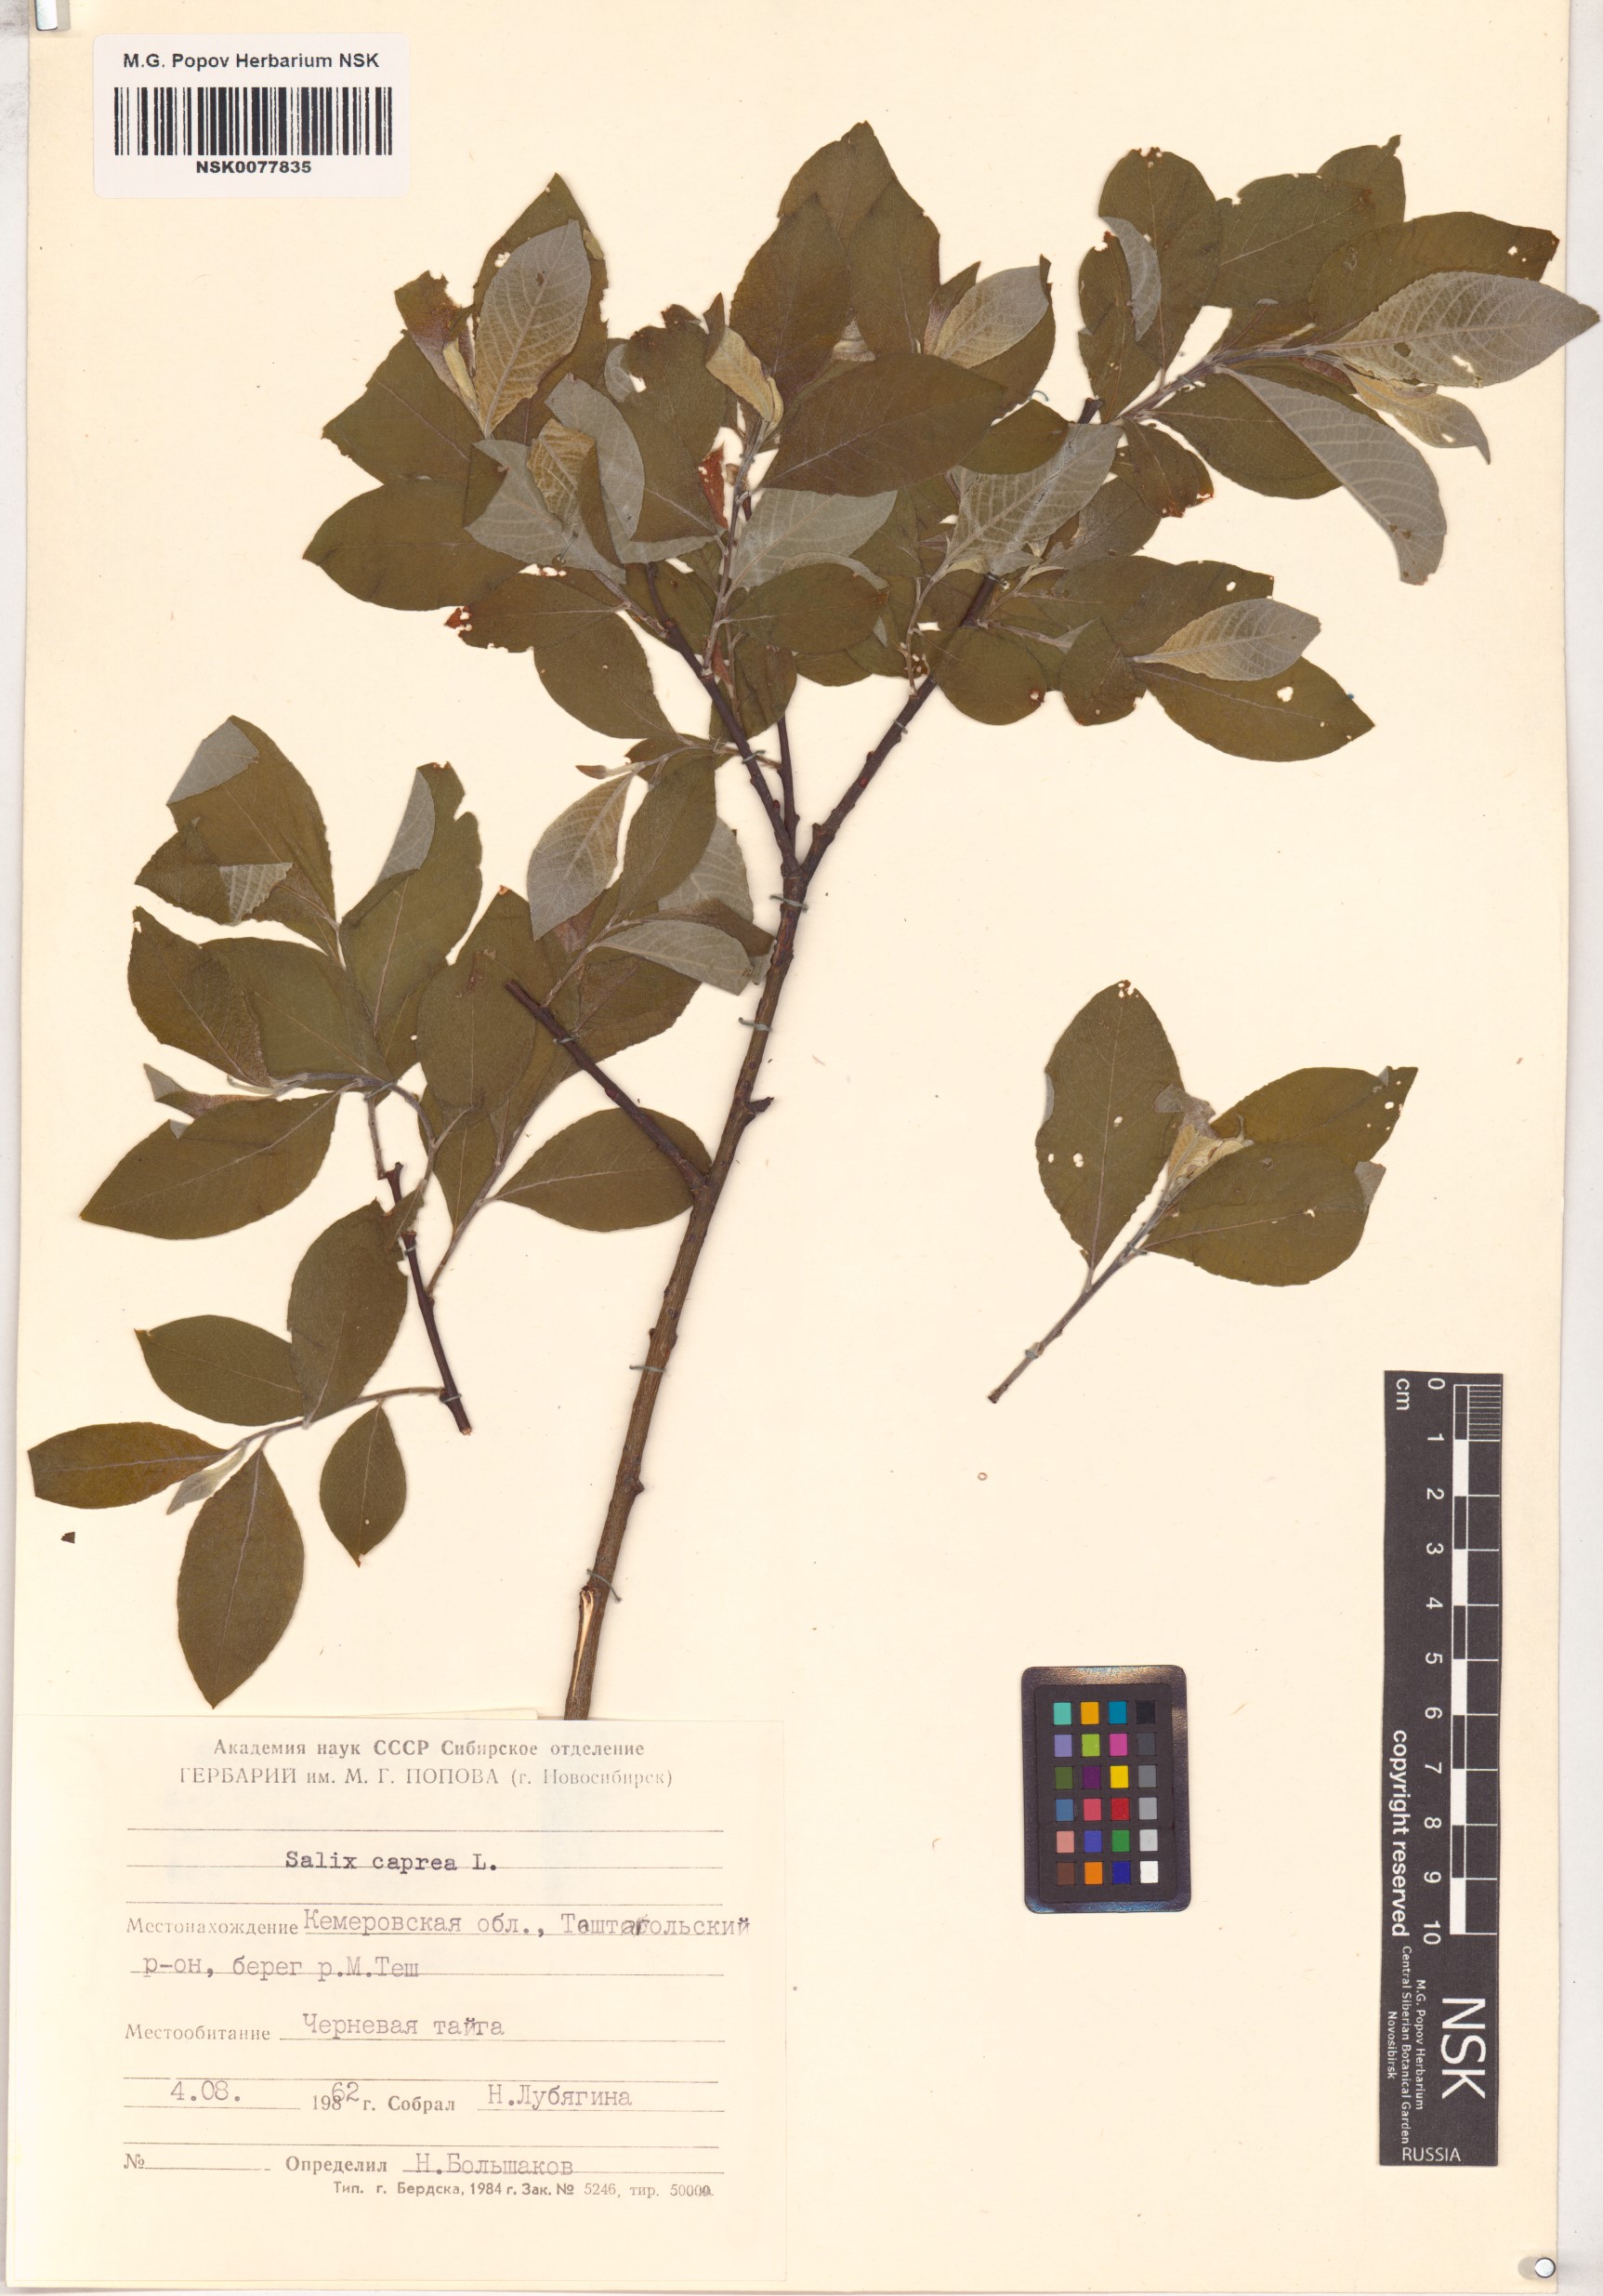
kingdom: Plantae
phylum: Tracheophyta
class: Magnoliopsida
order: Malpighiales
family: Salicaceae
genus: Salix
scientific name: Salix caprea
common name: Goat willow
